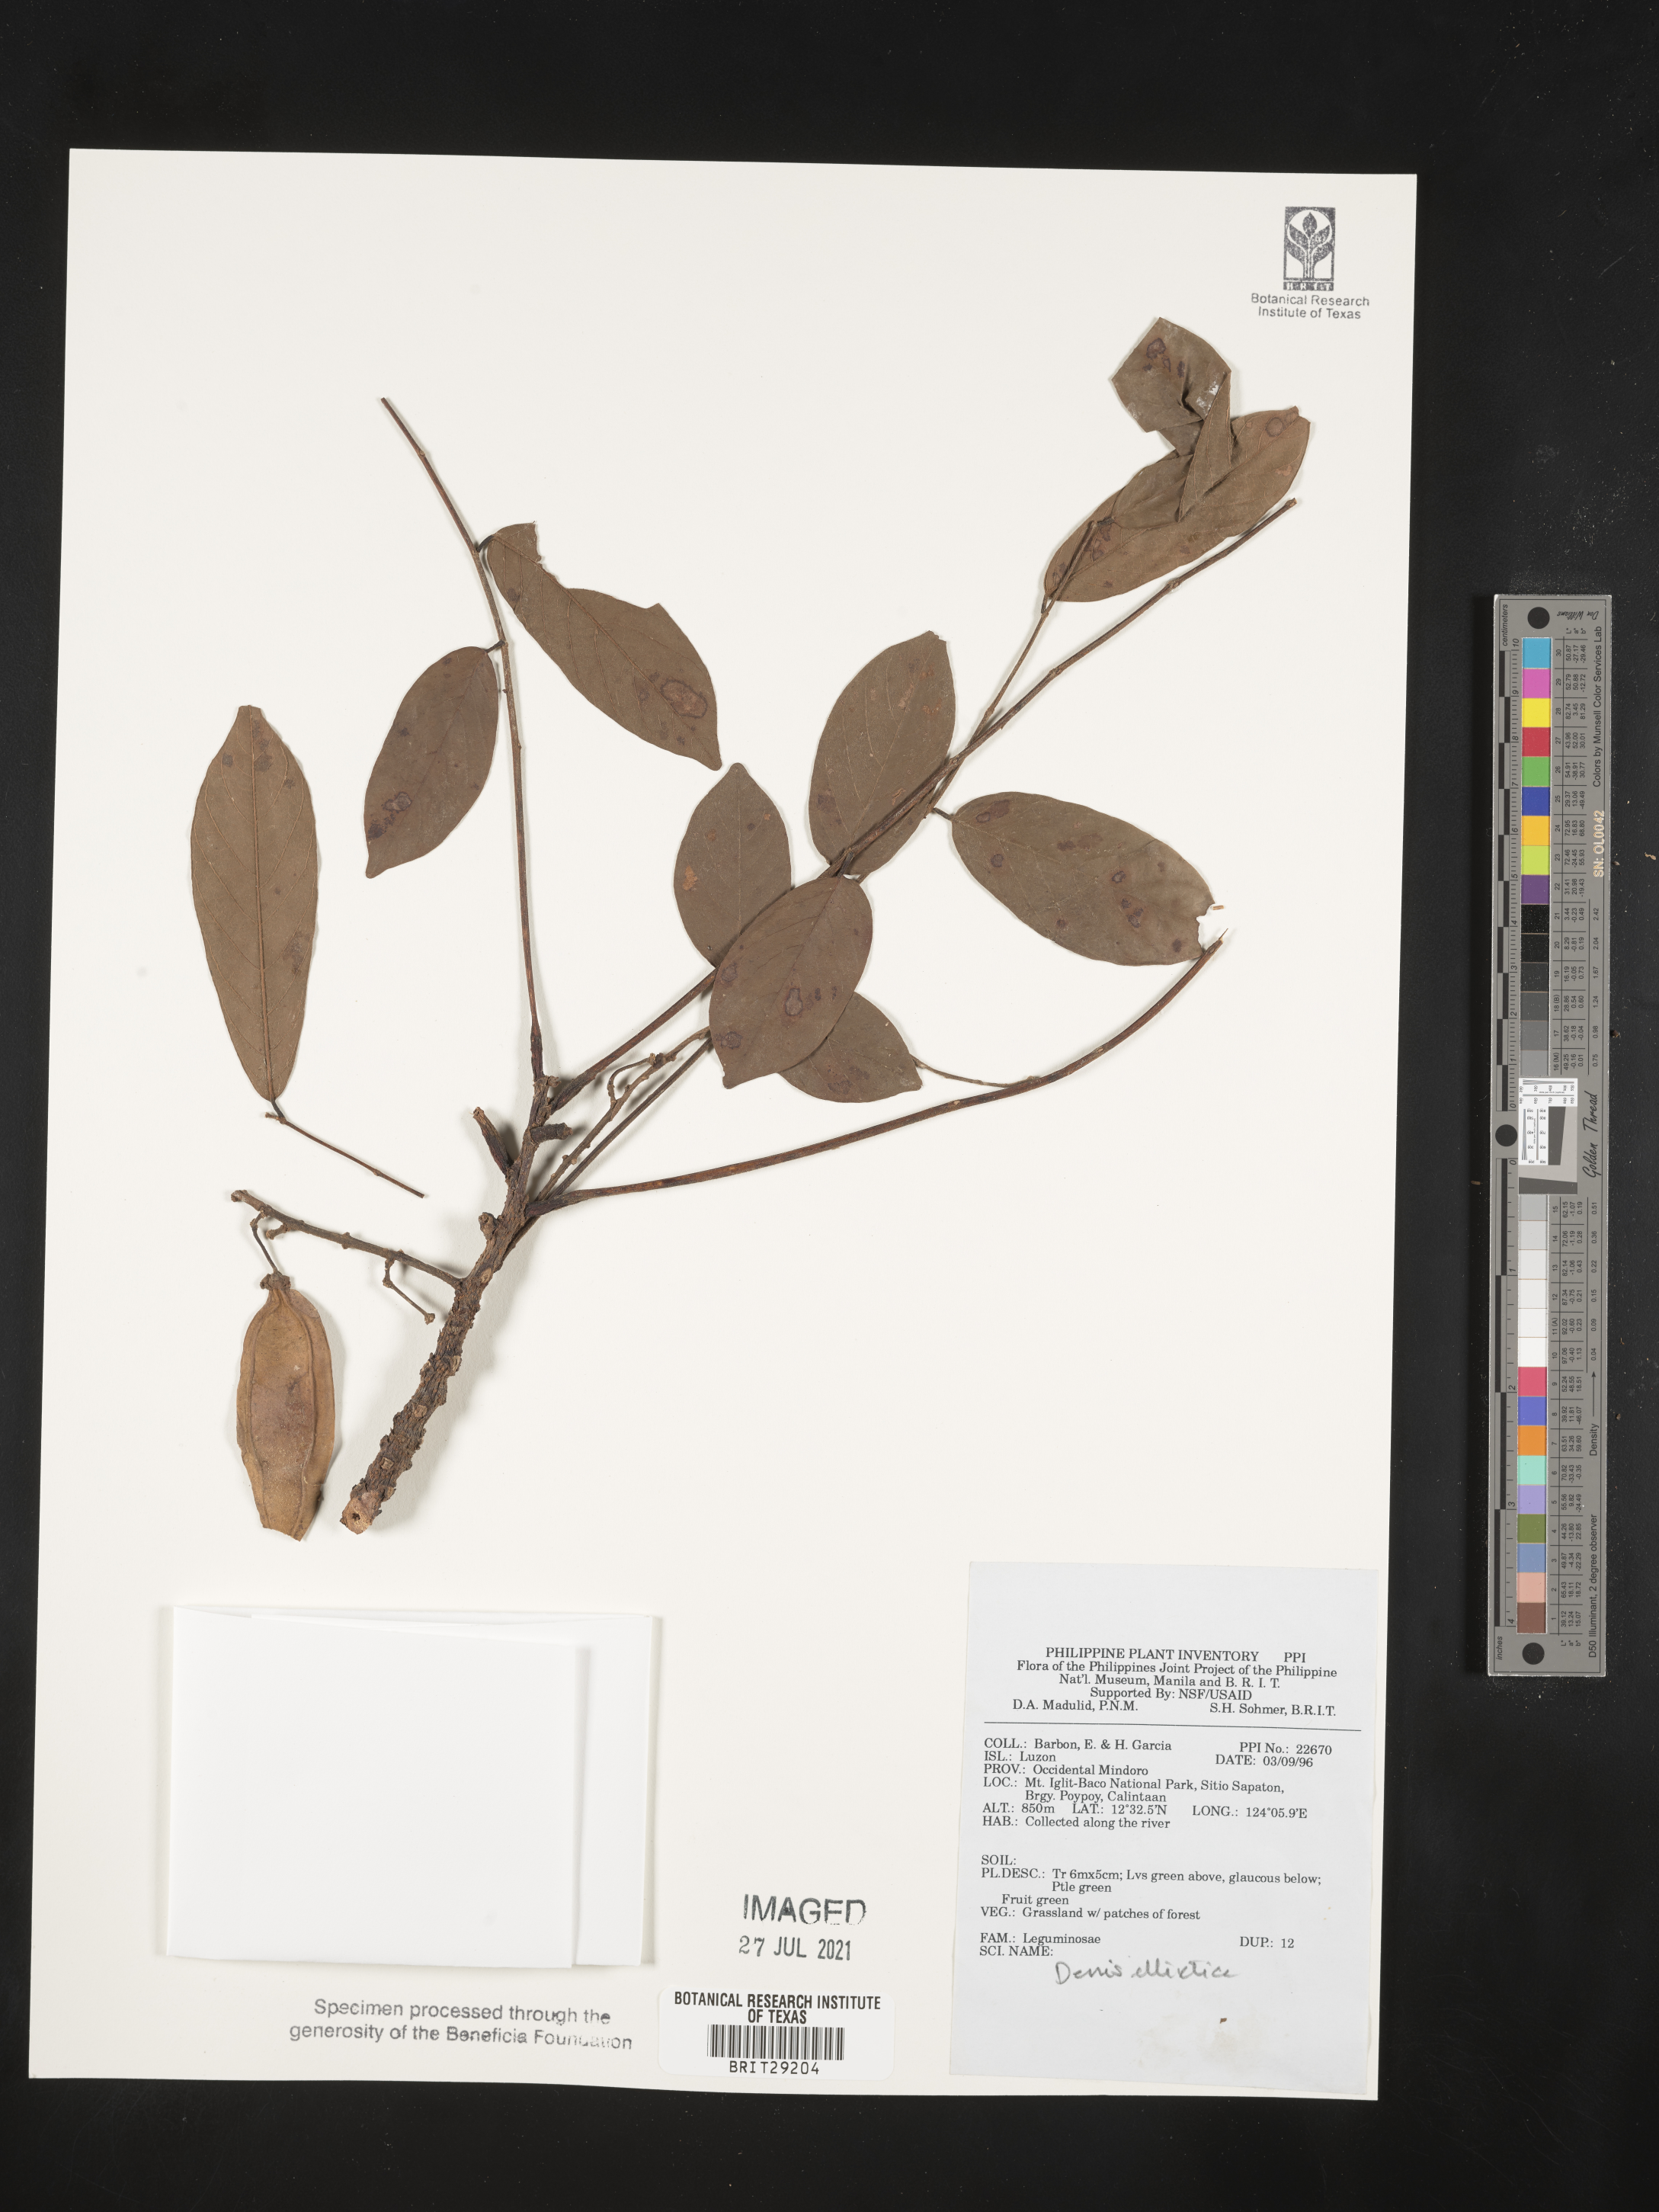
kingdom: Plantae
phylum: Tracheophyta
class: Magnoliopsida
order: Fabales
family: Fabaceae
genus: Derris
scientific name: Derris elliptica
